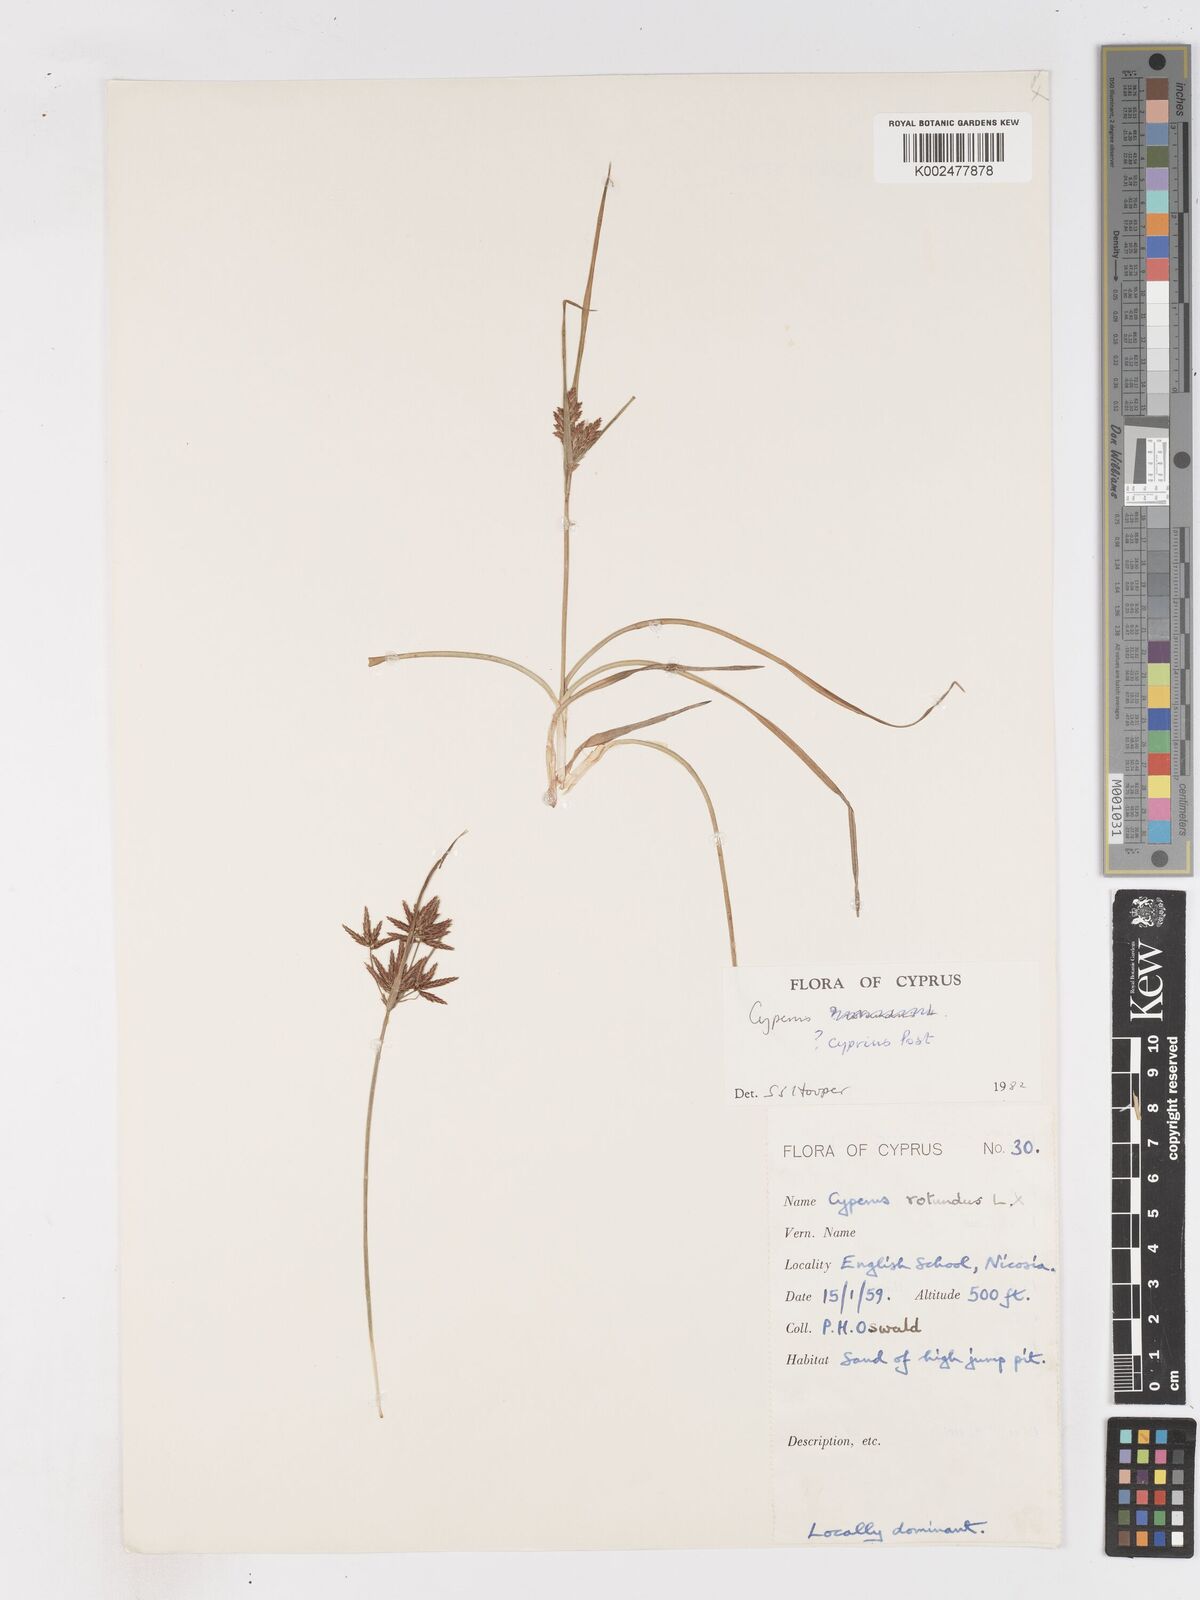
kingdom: Plantae
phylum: Tracheophyta
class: Liliopsida
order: Poales
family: Cyperaceae
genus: Cyperus
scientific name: Cyperus longus
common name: Galingale
